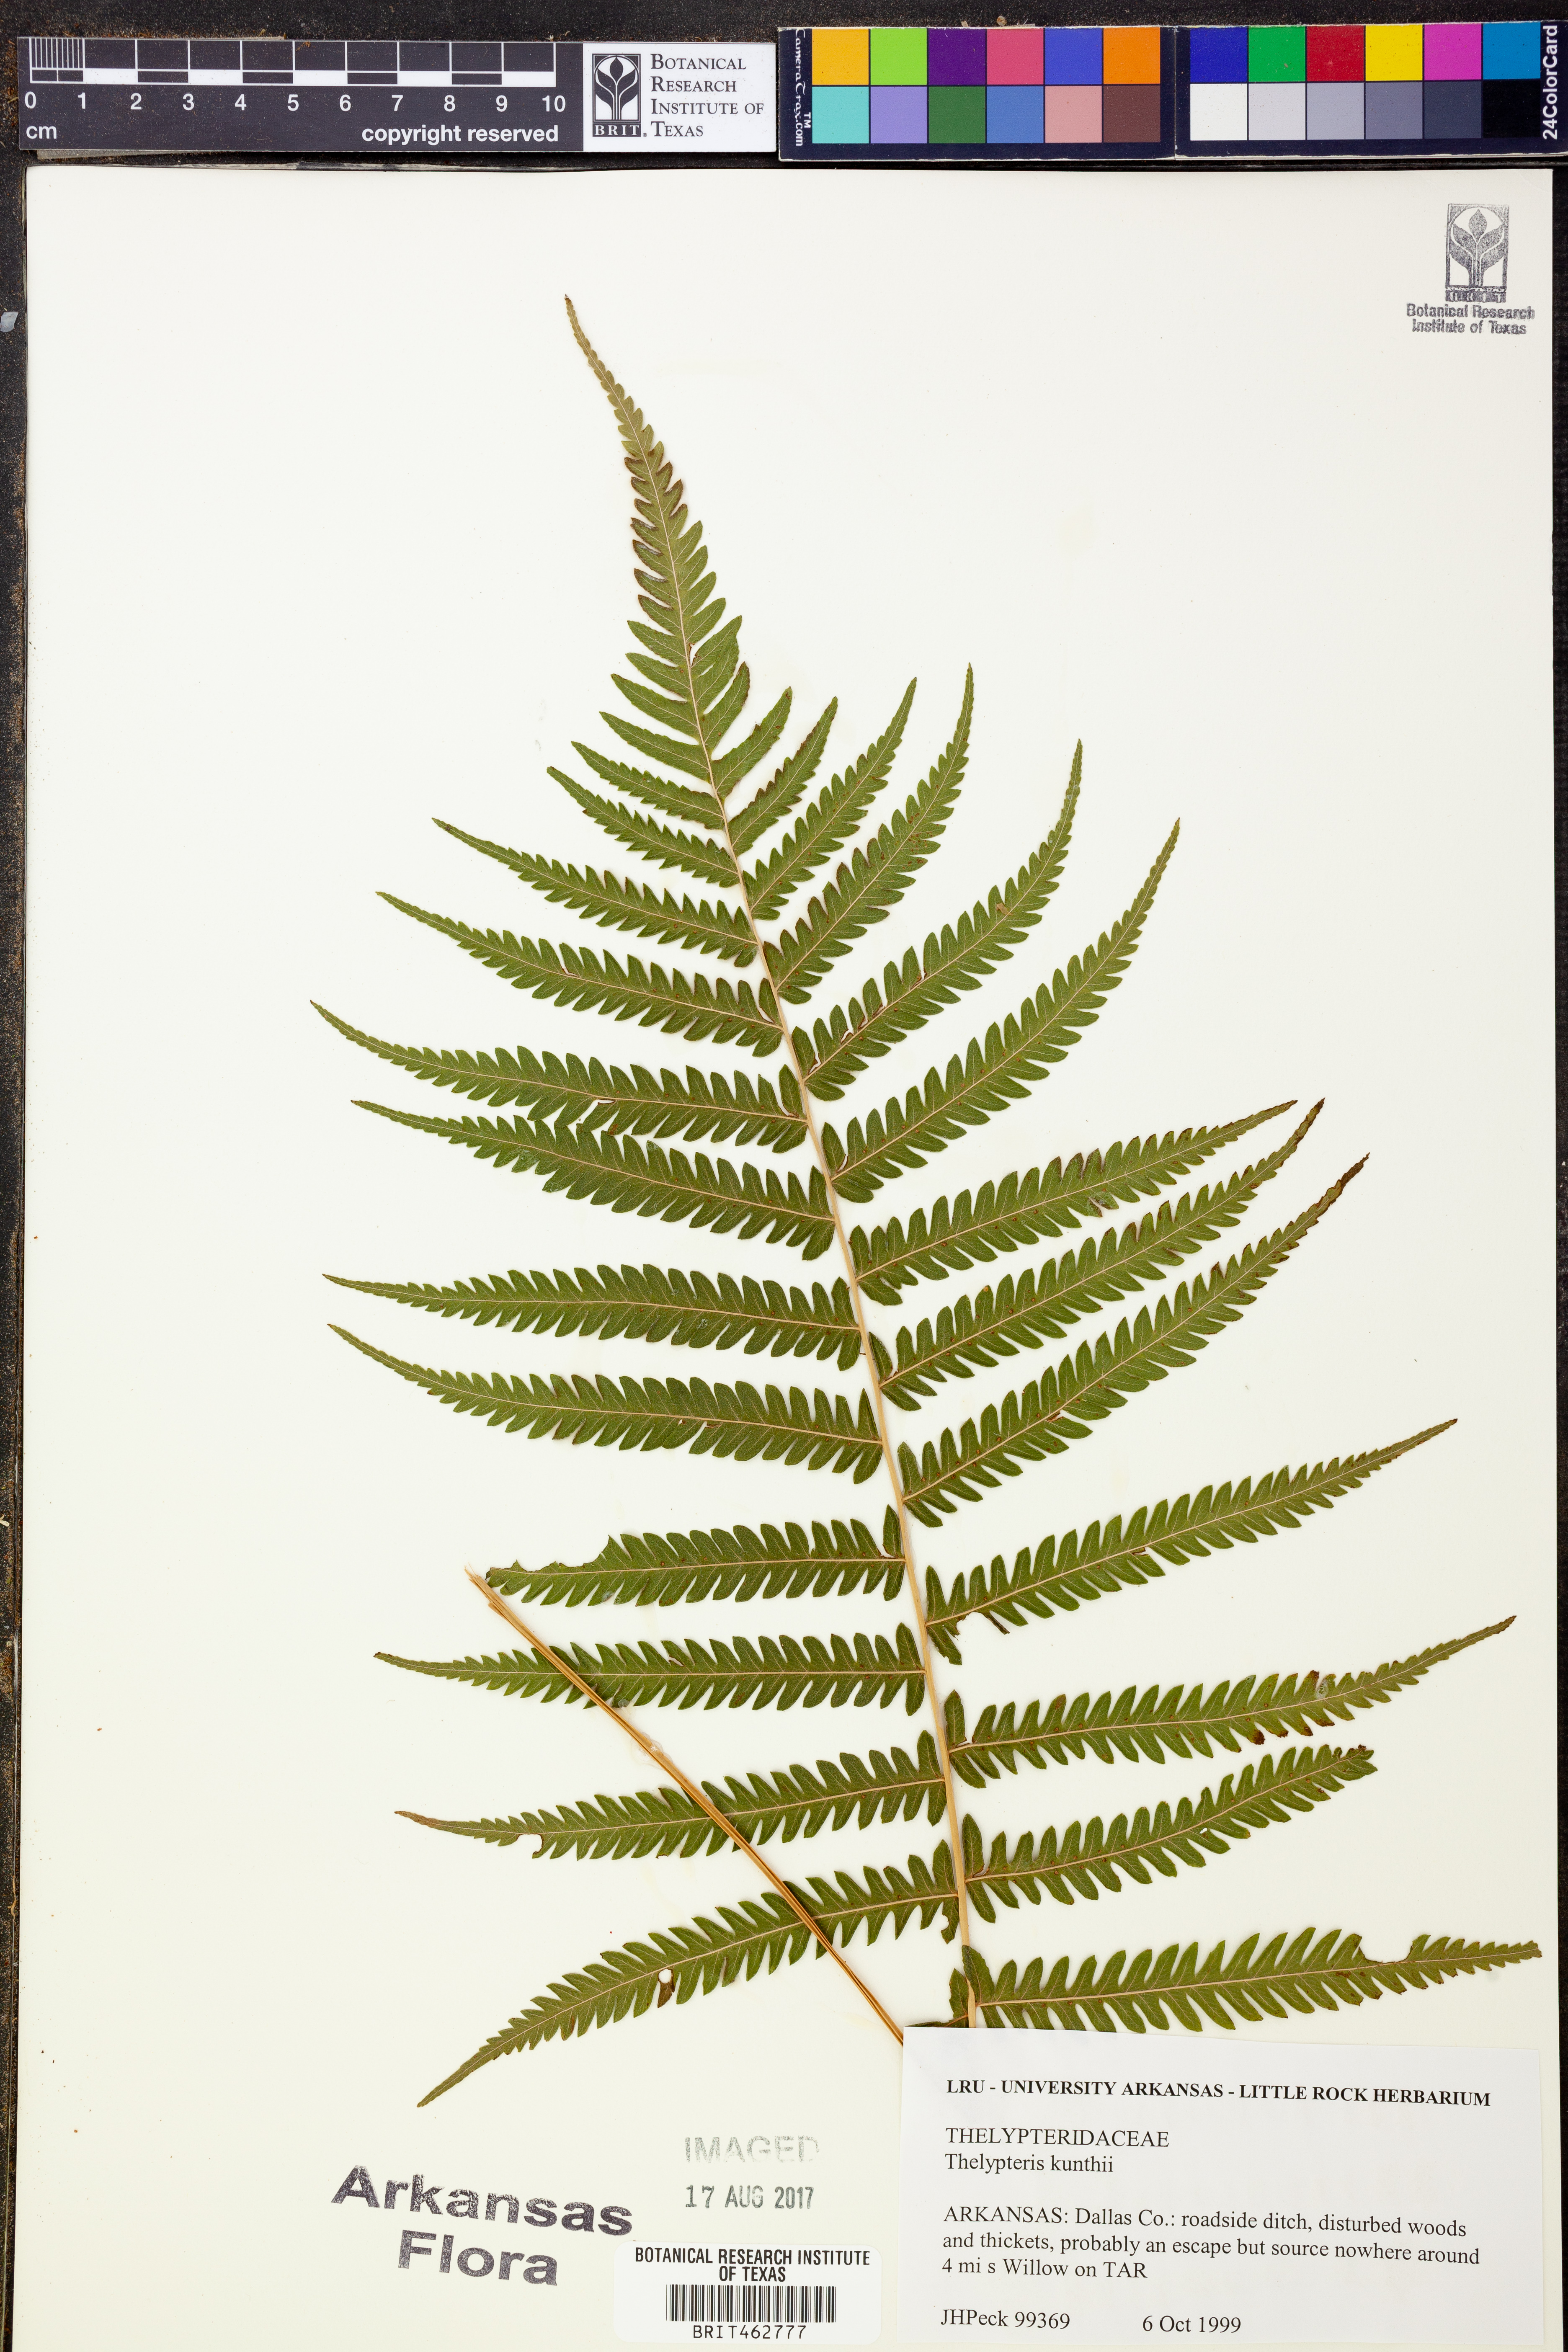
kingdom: Plantae
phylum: Tracheophyta
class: Polypodiopsida
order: Polypodiales
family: Thelypteridaceae
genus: Pelazoneuron
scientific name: Pelazoneuron kunthii
